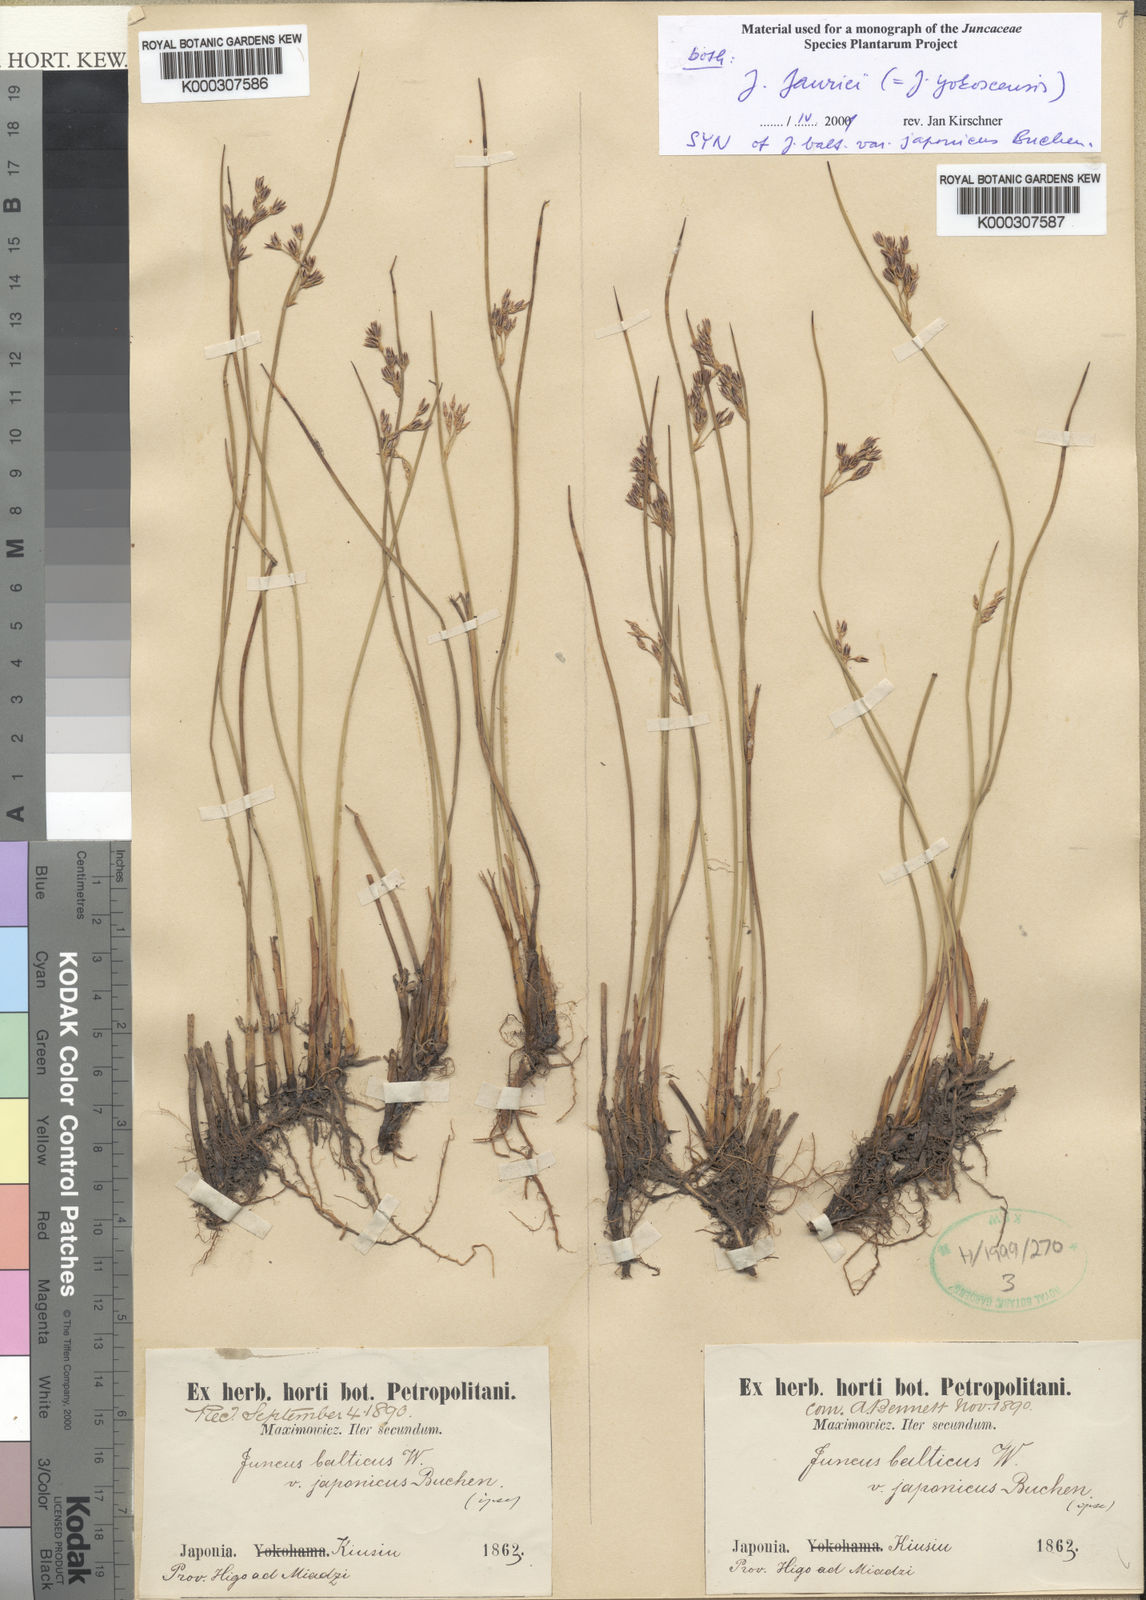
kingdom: Plantae
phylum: Tracheophyta
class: Liliopsida
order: Poales
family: Juncaceae
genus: Juncus
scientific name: Juncus fauriei
